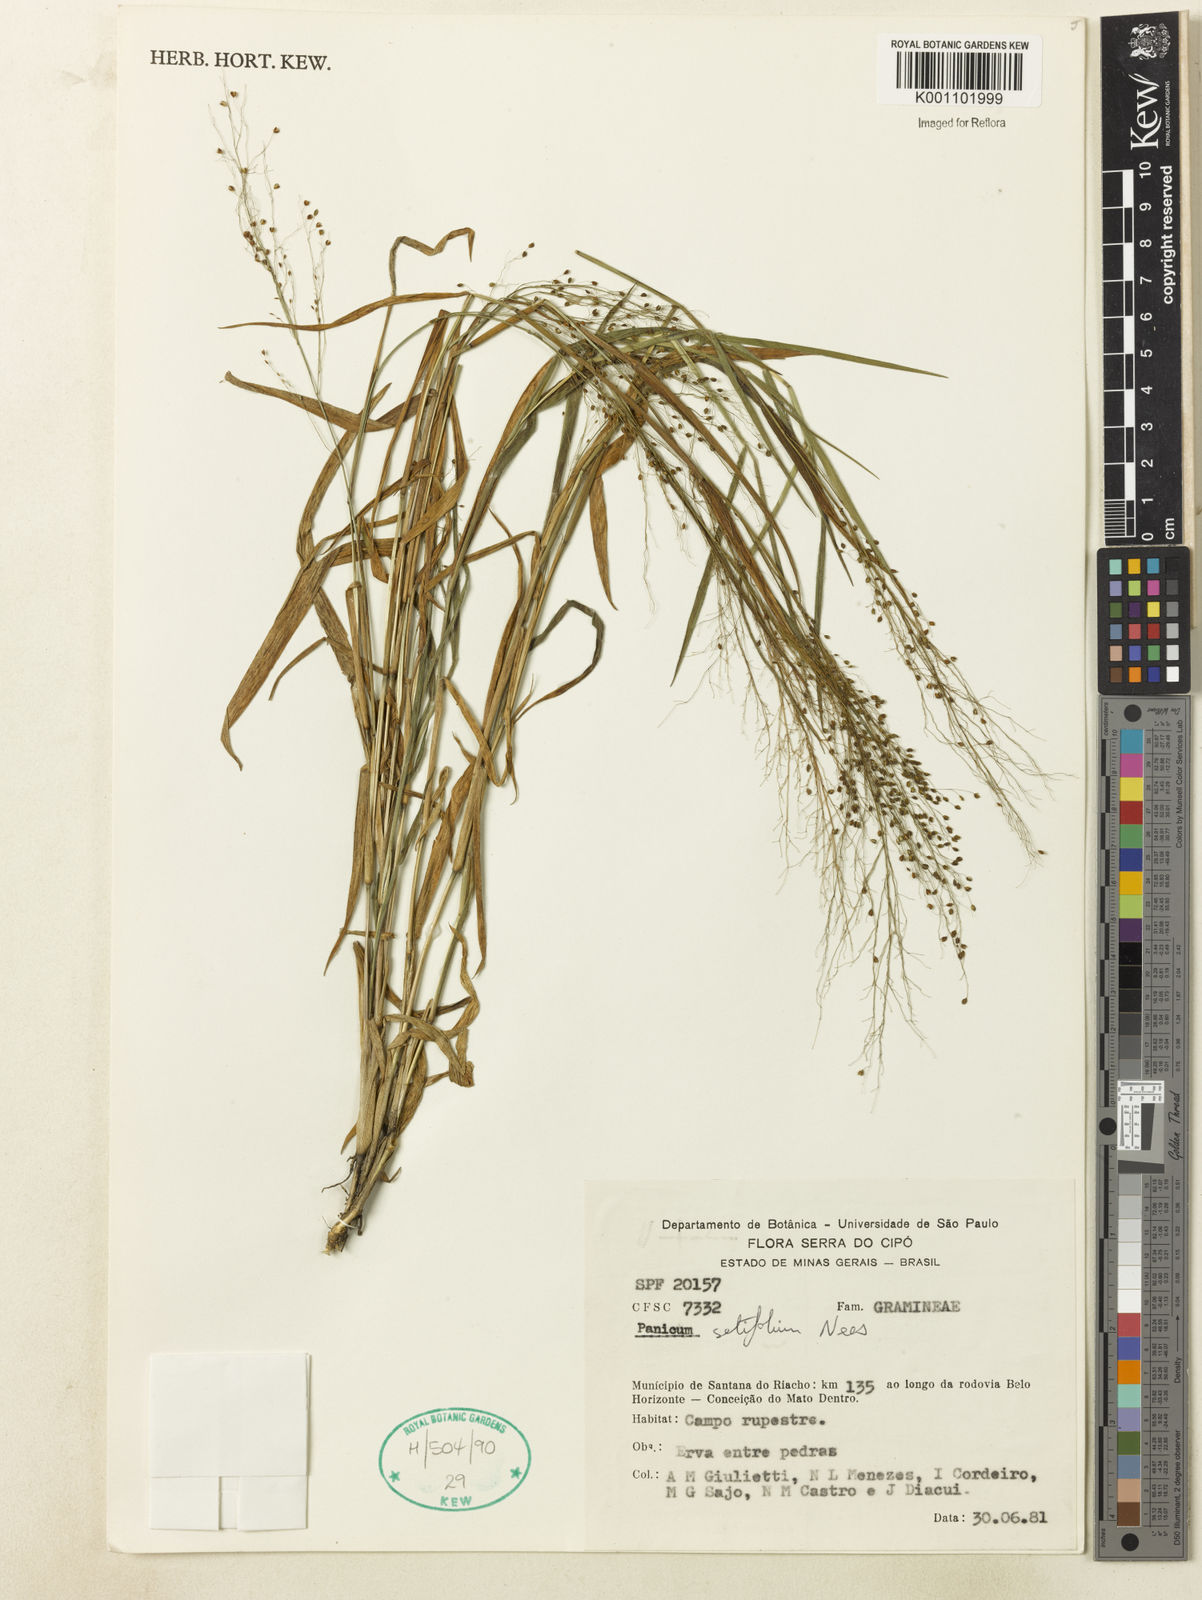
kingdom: Plantae
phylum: Tracheophyta
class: Liliopsida
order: Poales
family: Poaceae
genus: Panicum
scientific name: Panicum rupestre
